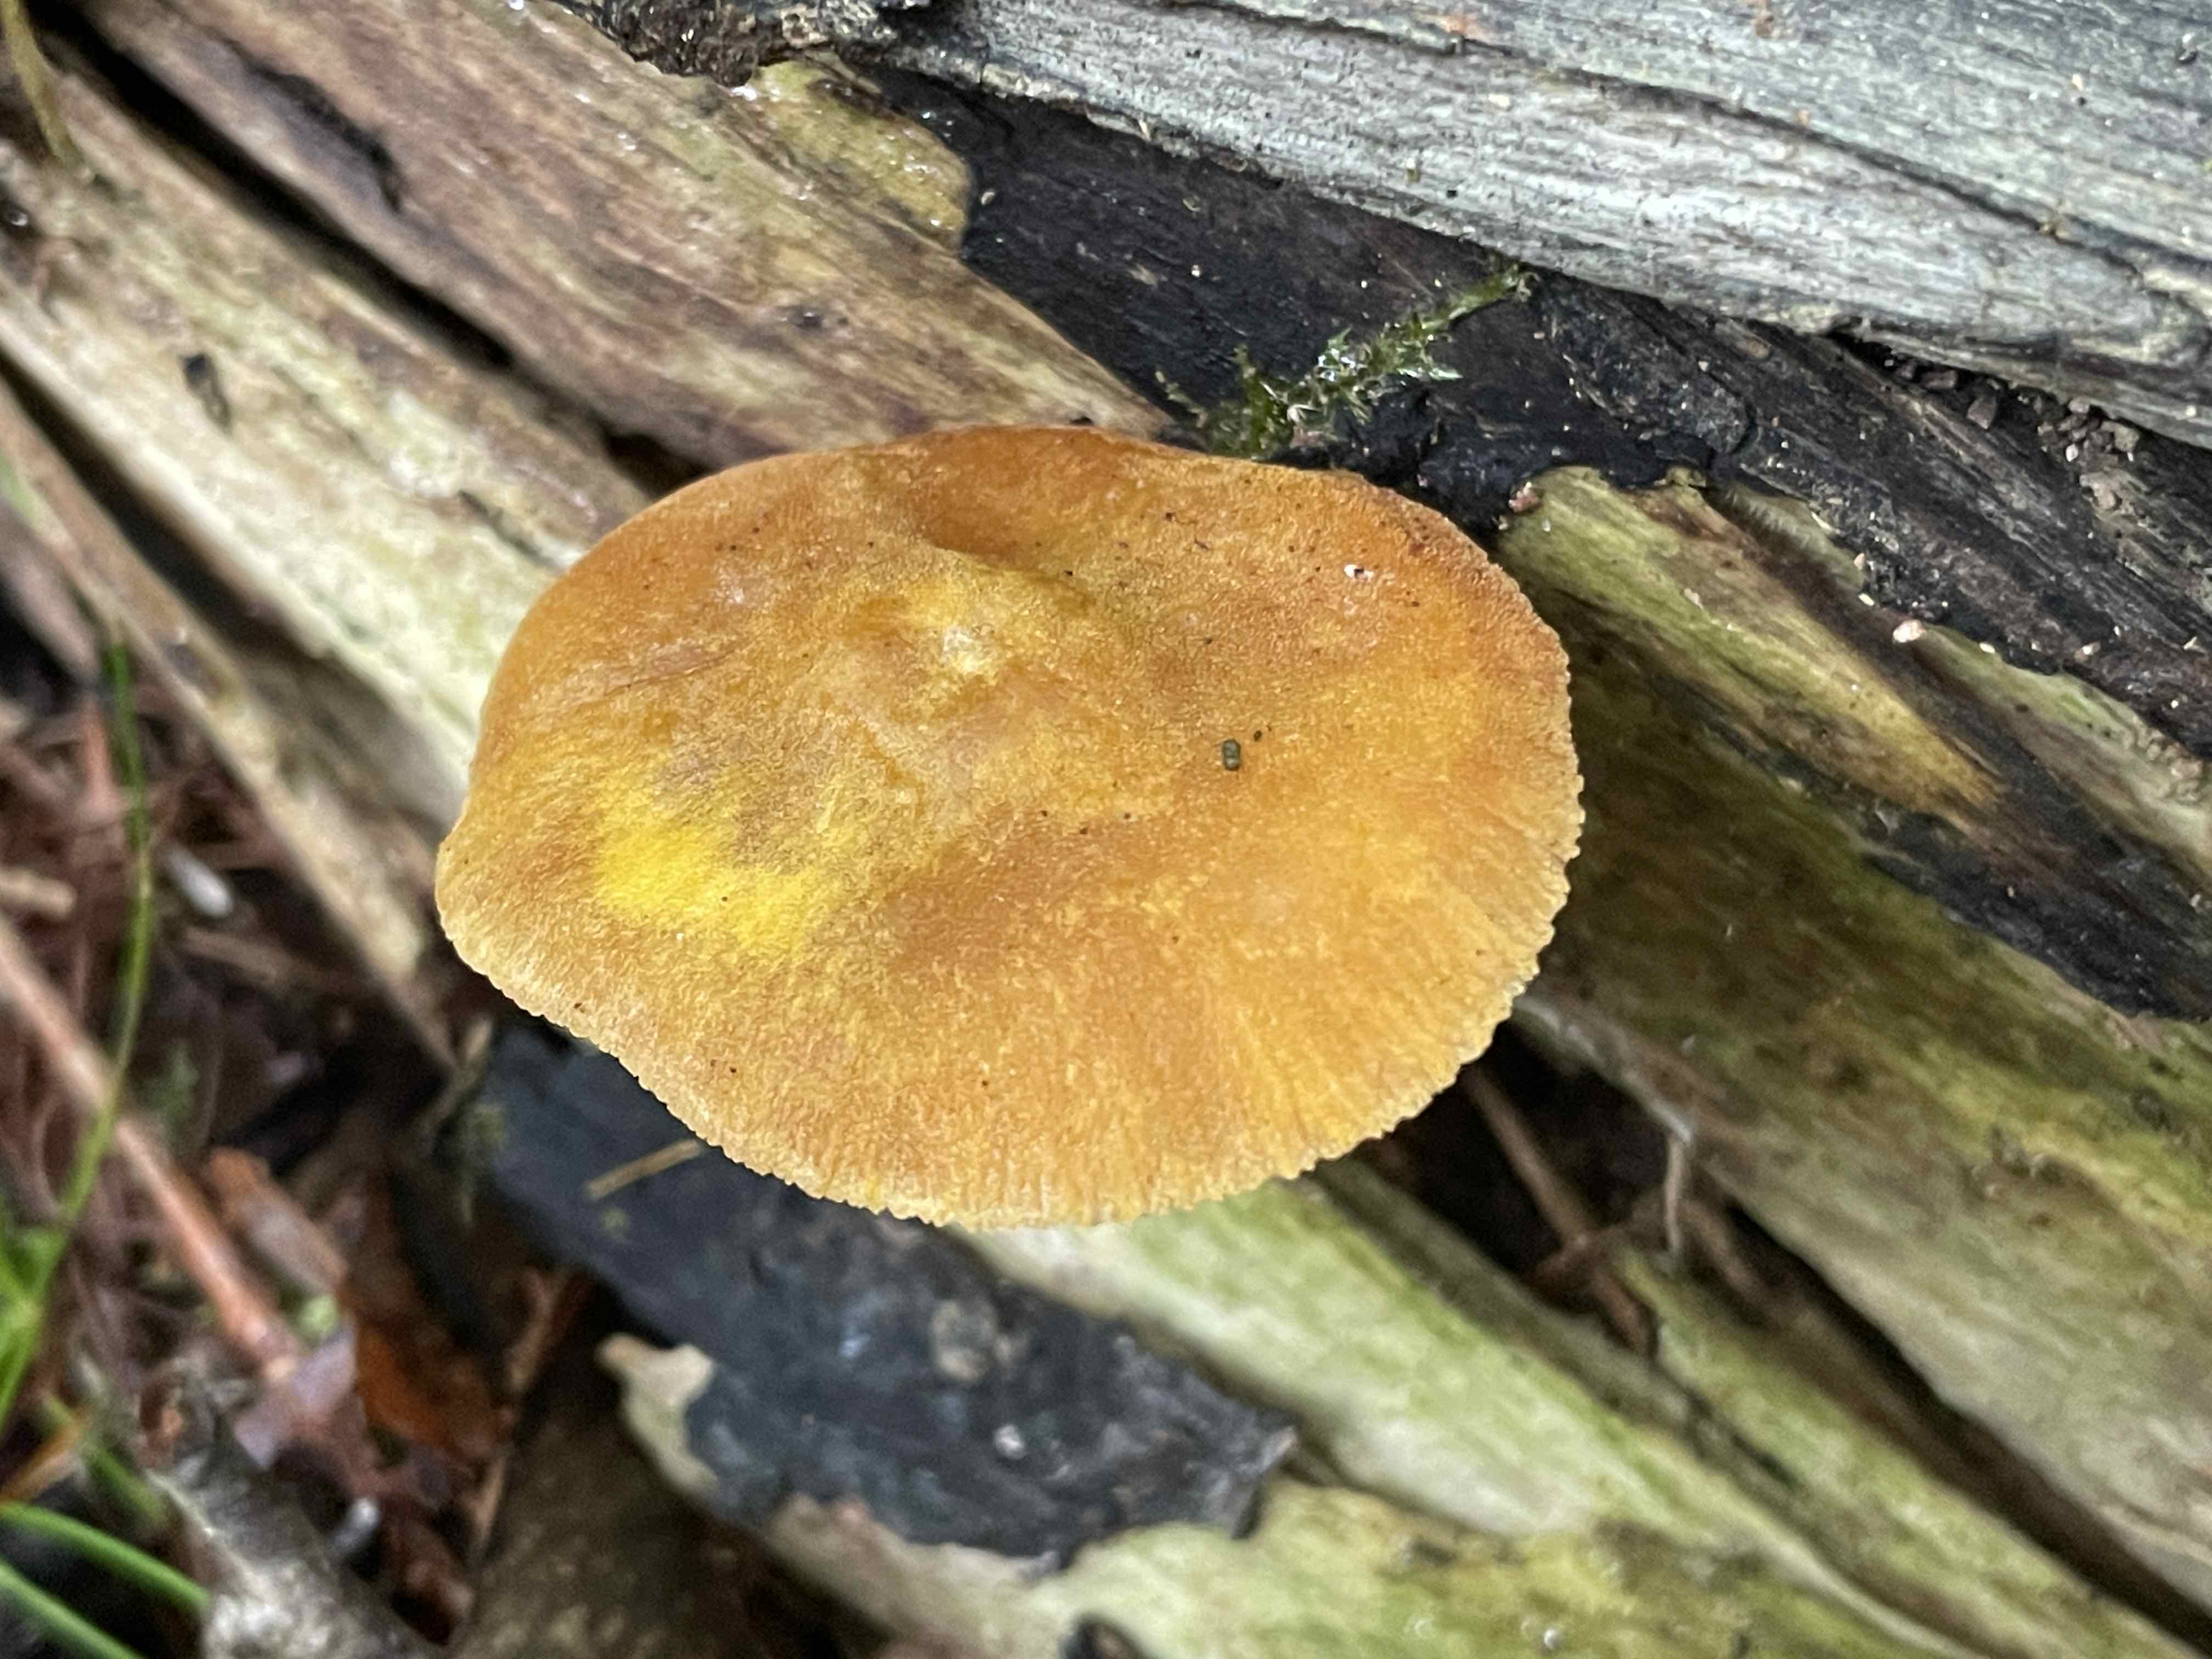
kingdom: Fungi
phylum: Basidiomycota
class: Agaricomycetes
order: Agaricales
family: Pluteaceae
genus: Pluteus
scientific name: Pluteus leoninus
